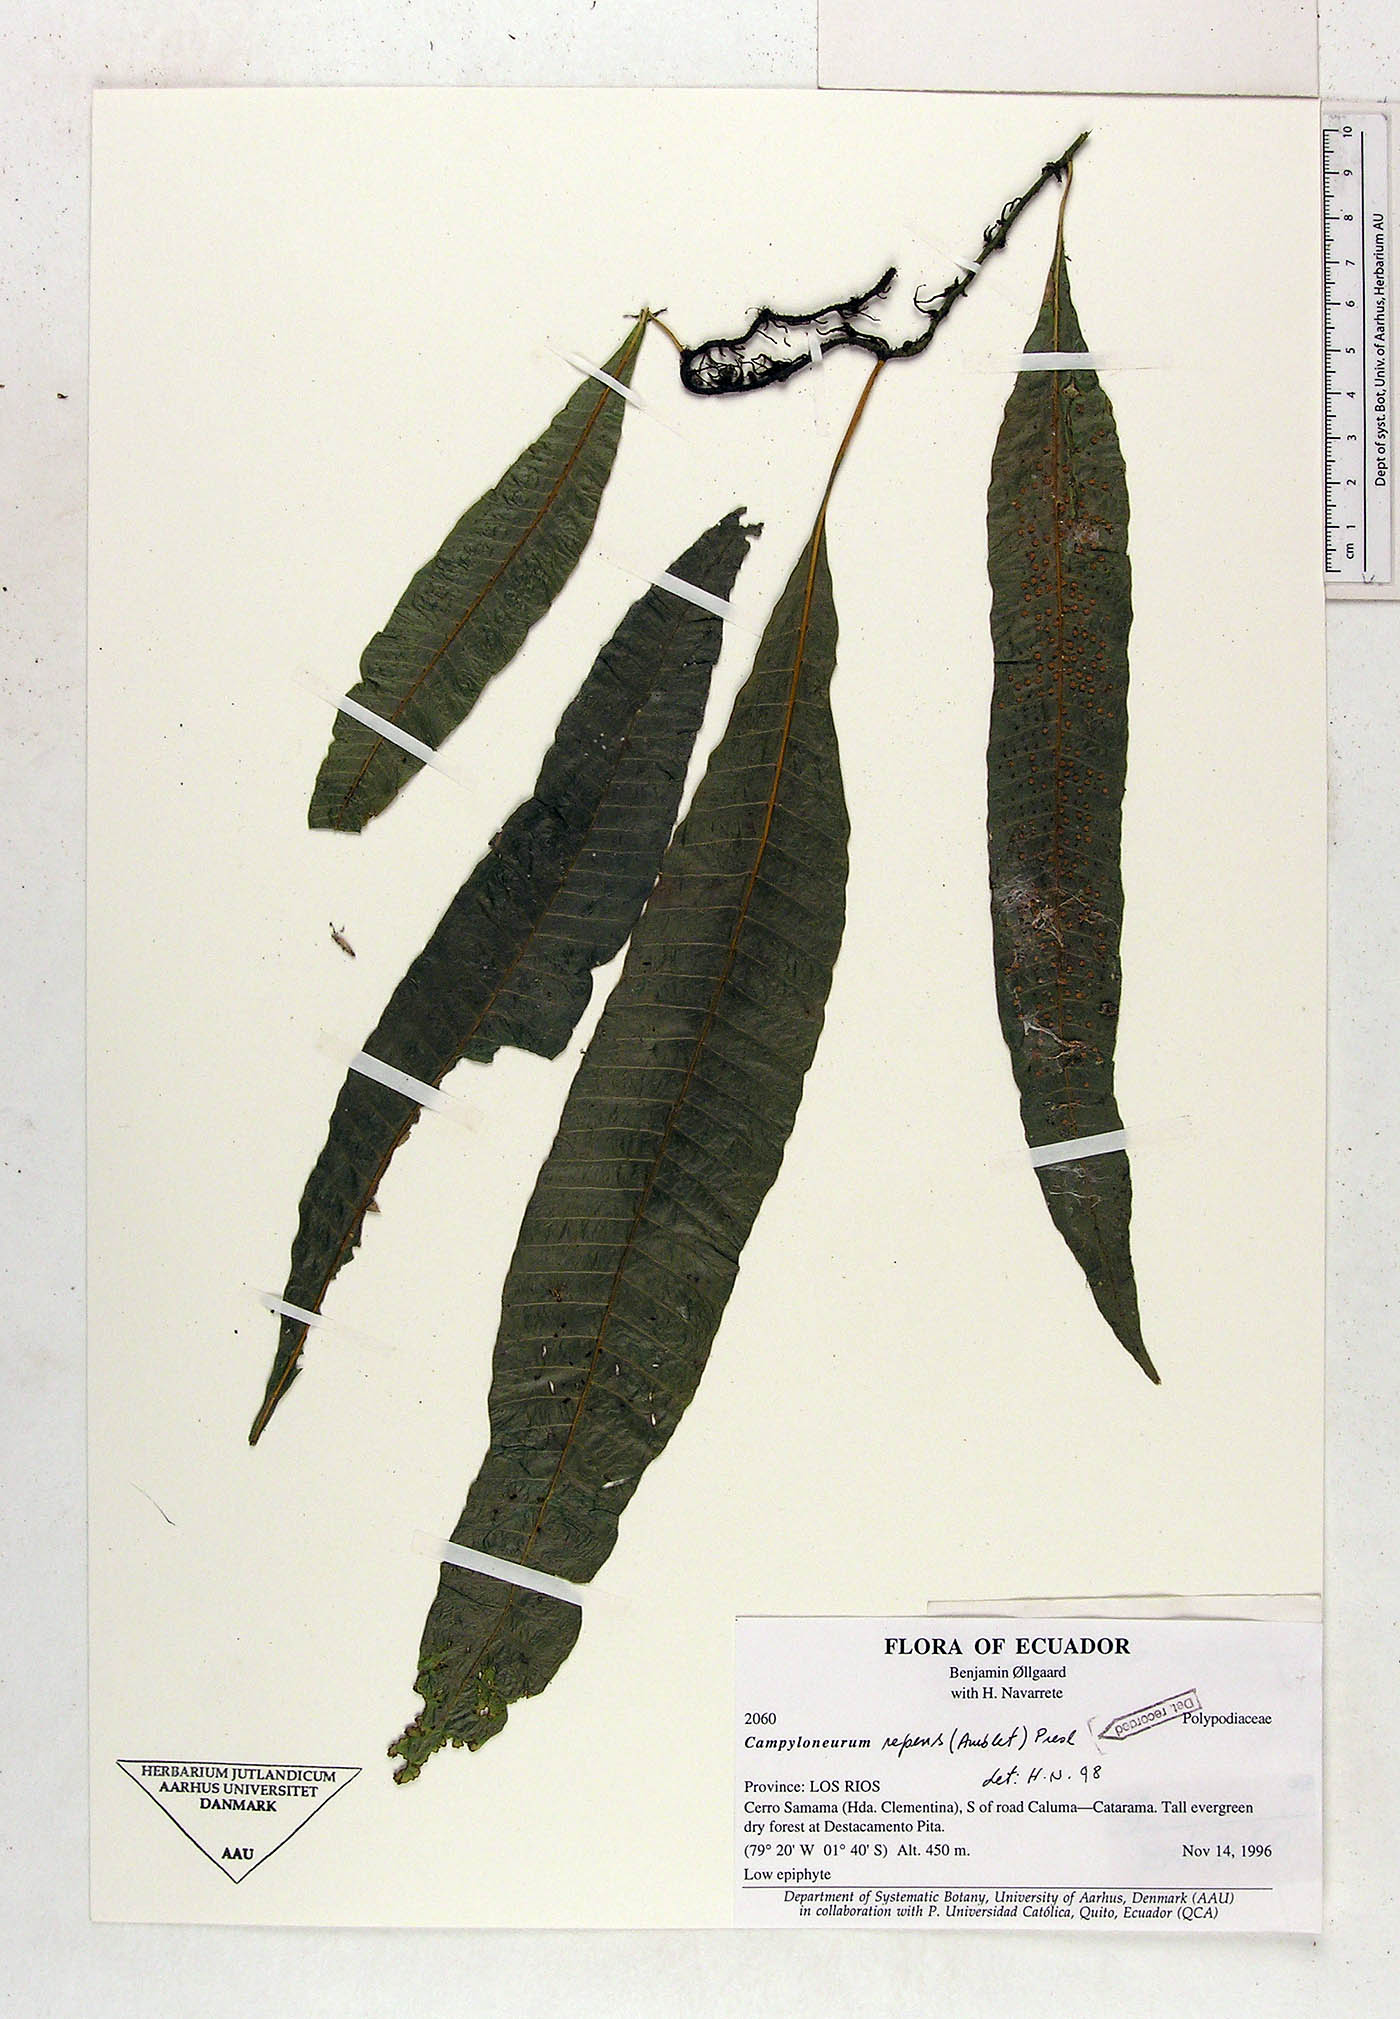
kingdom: Plantae
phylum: Tracheophyta
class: Polypodiopsida
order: Polypodiales
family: Polypodiaceae
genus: Campyloneurum
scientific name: Campyloneurum repens
